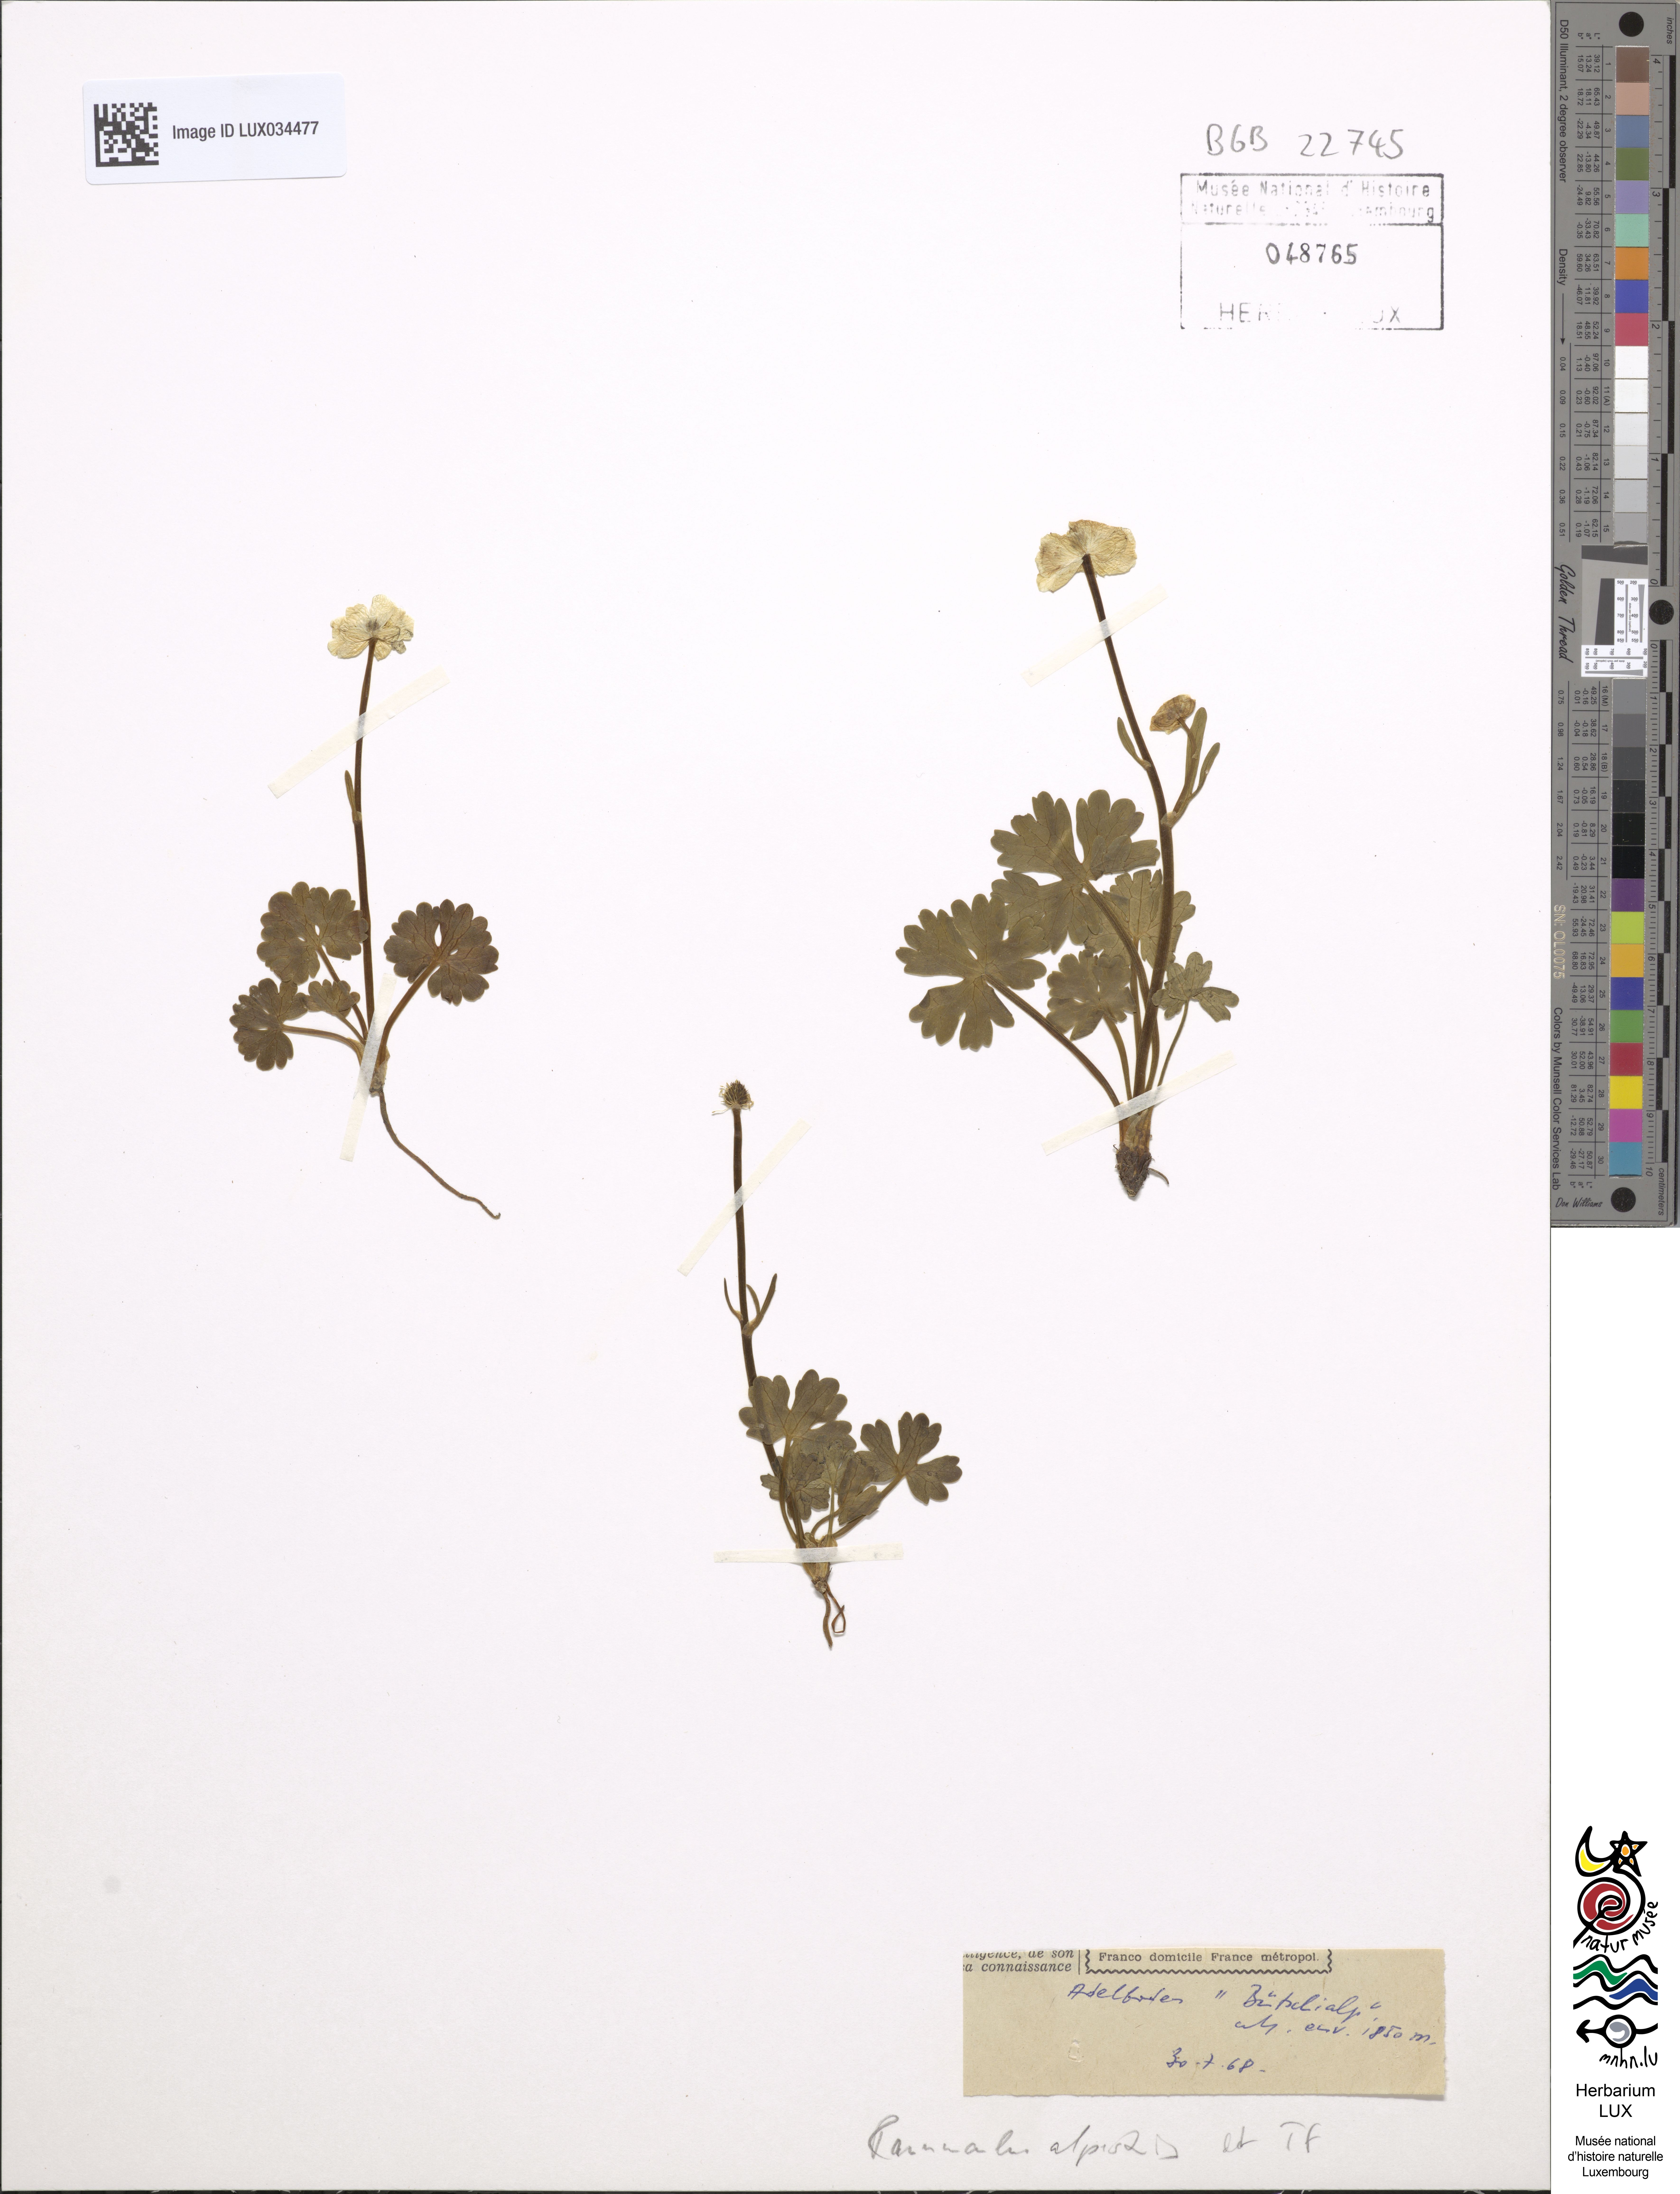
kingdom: Plantae
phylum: Tracheophyta
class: Magnoliopsida
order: Ranunculales
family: Ranunculaceae
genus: Ranunculus
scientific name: Ranunculus alpestris
